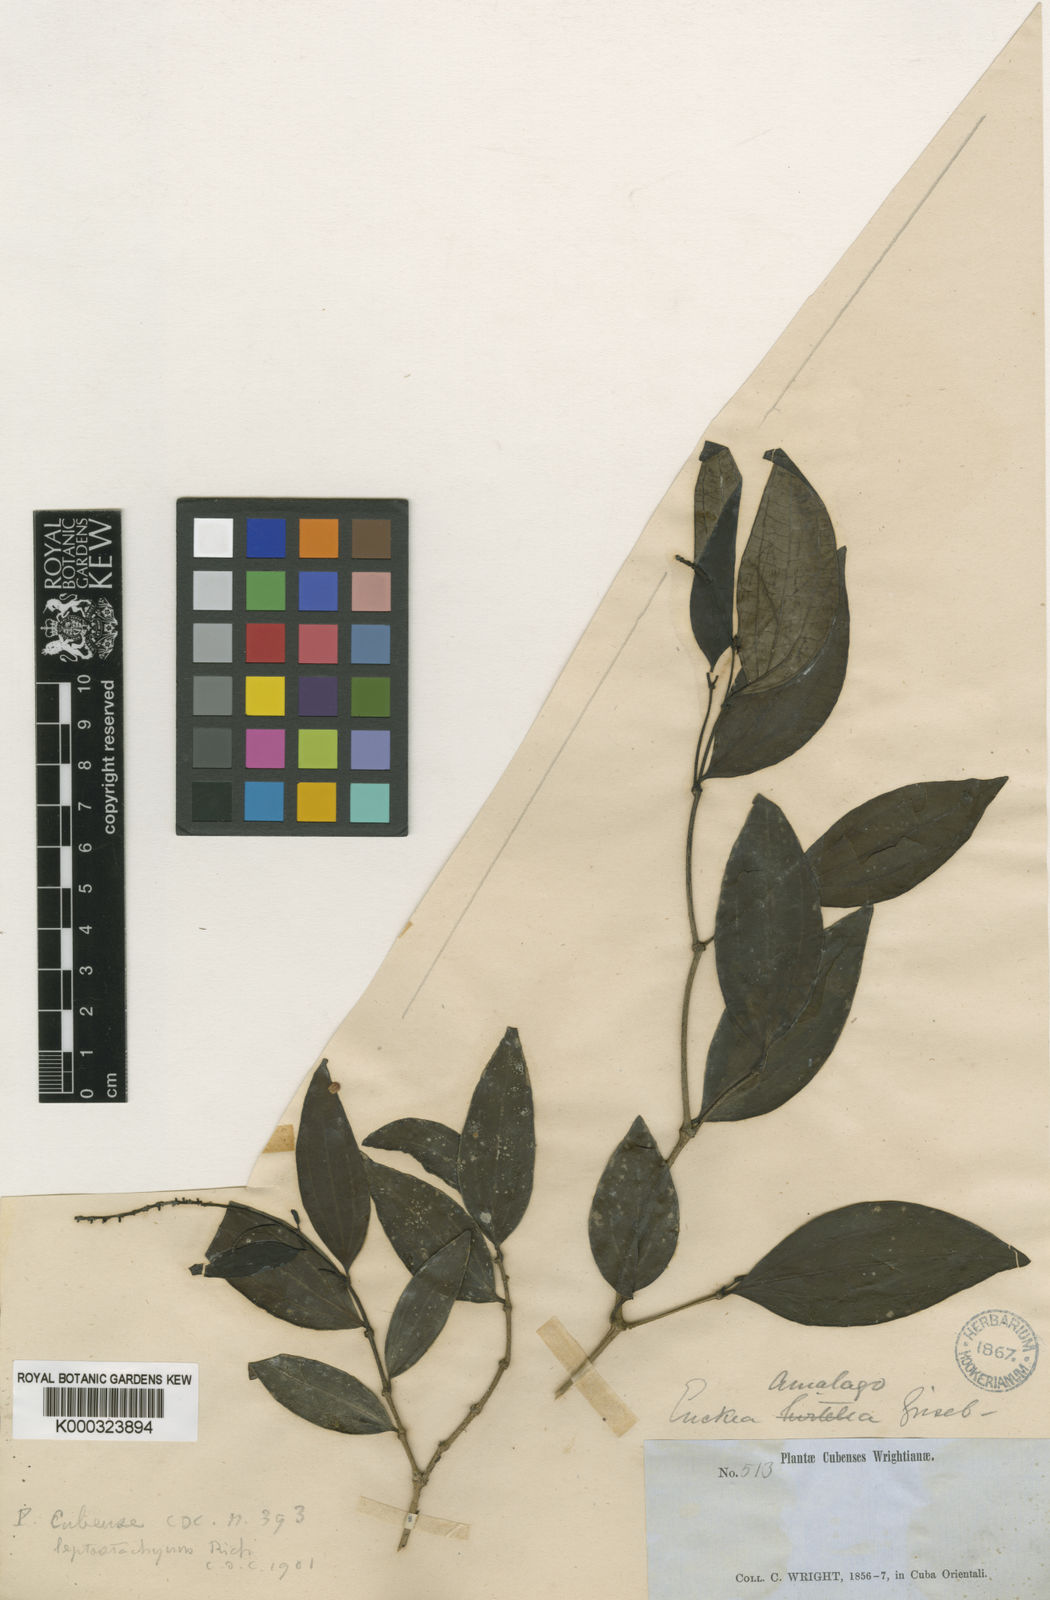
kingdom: Plantae
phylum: Tracheophyta
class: Magnoliopsida
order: Piperales
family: Piperaceae
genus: Piper
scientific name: Piper lindenianum
